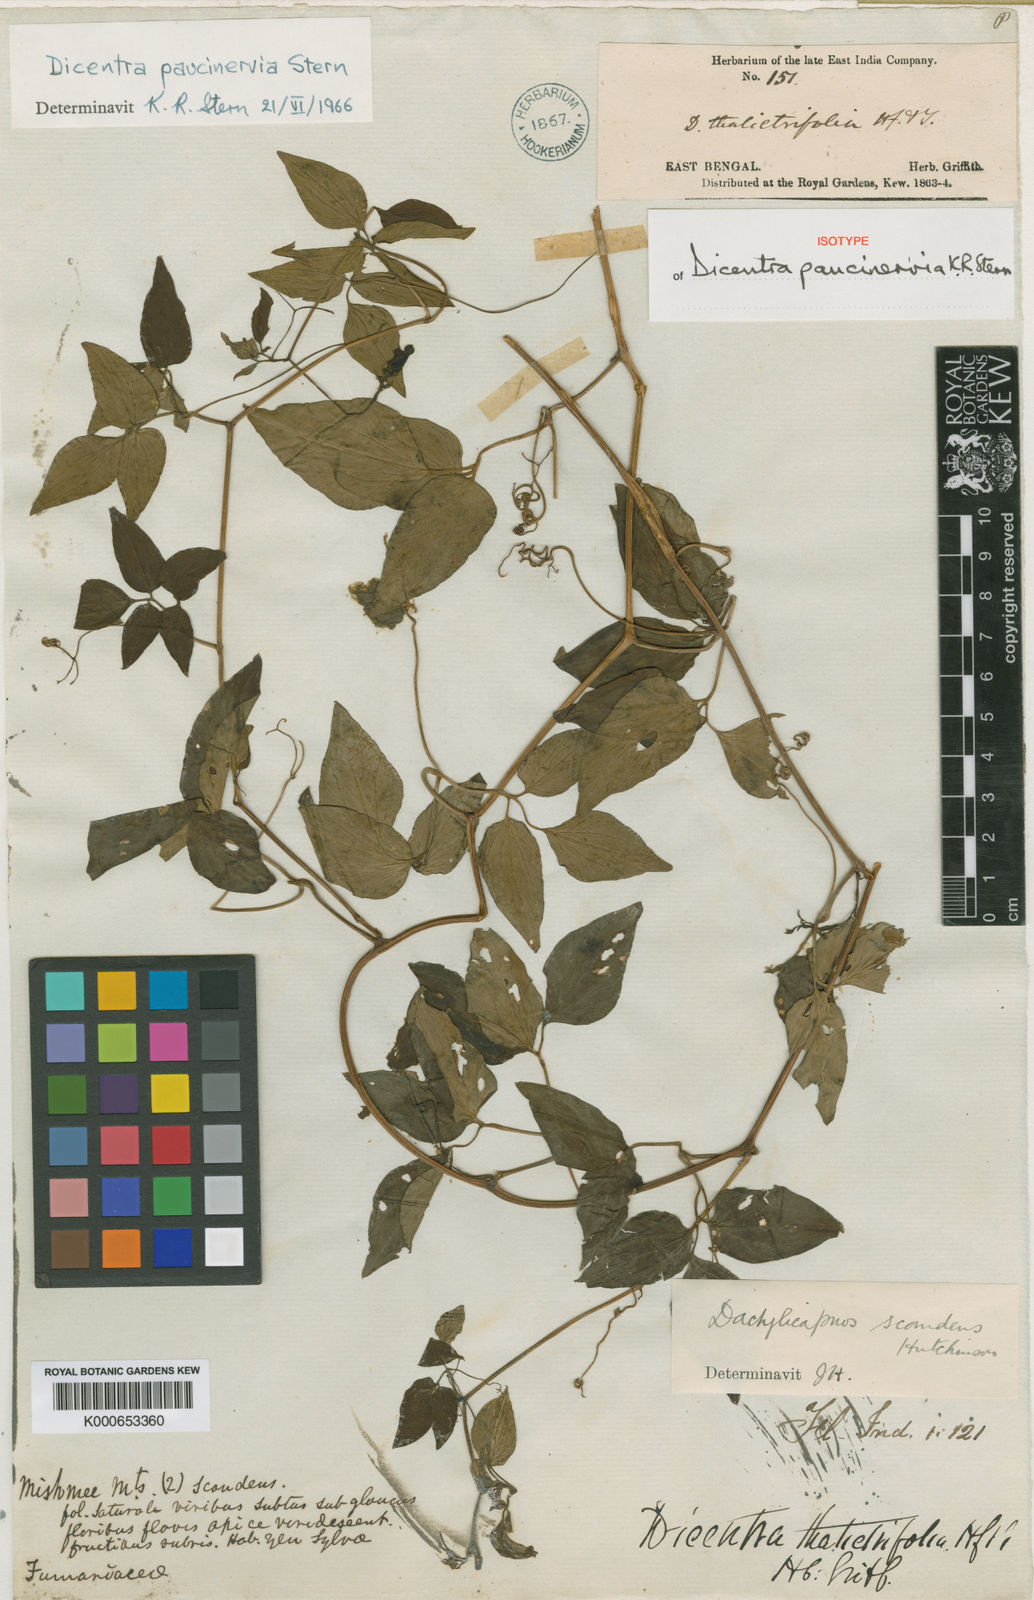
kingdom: Plantae
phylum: Tracheophyta
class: Magnoliopsida
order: Ranunculales
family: Papaveraceae
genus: Dactylicapnos
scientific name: Dactylicapnos paucinervia
